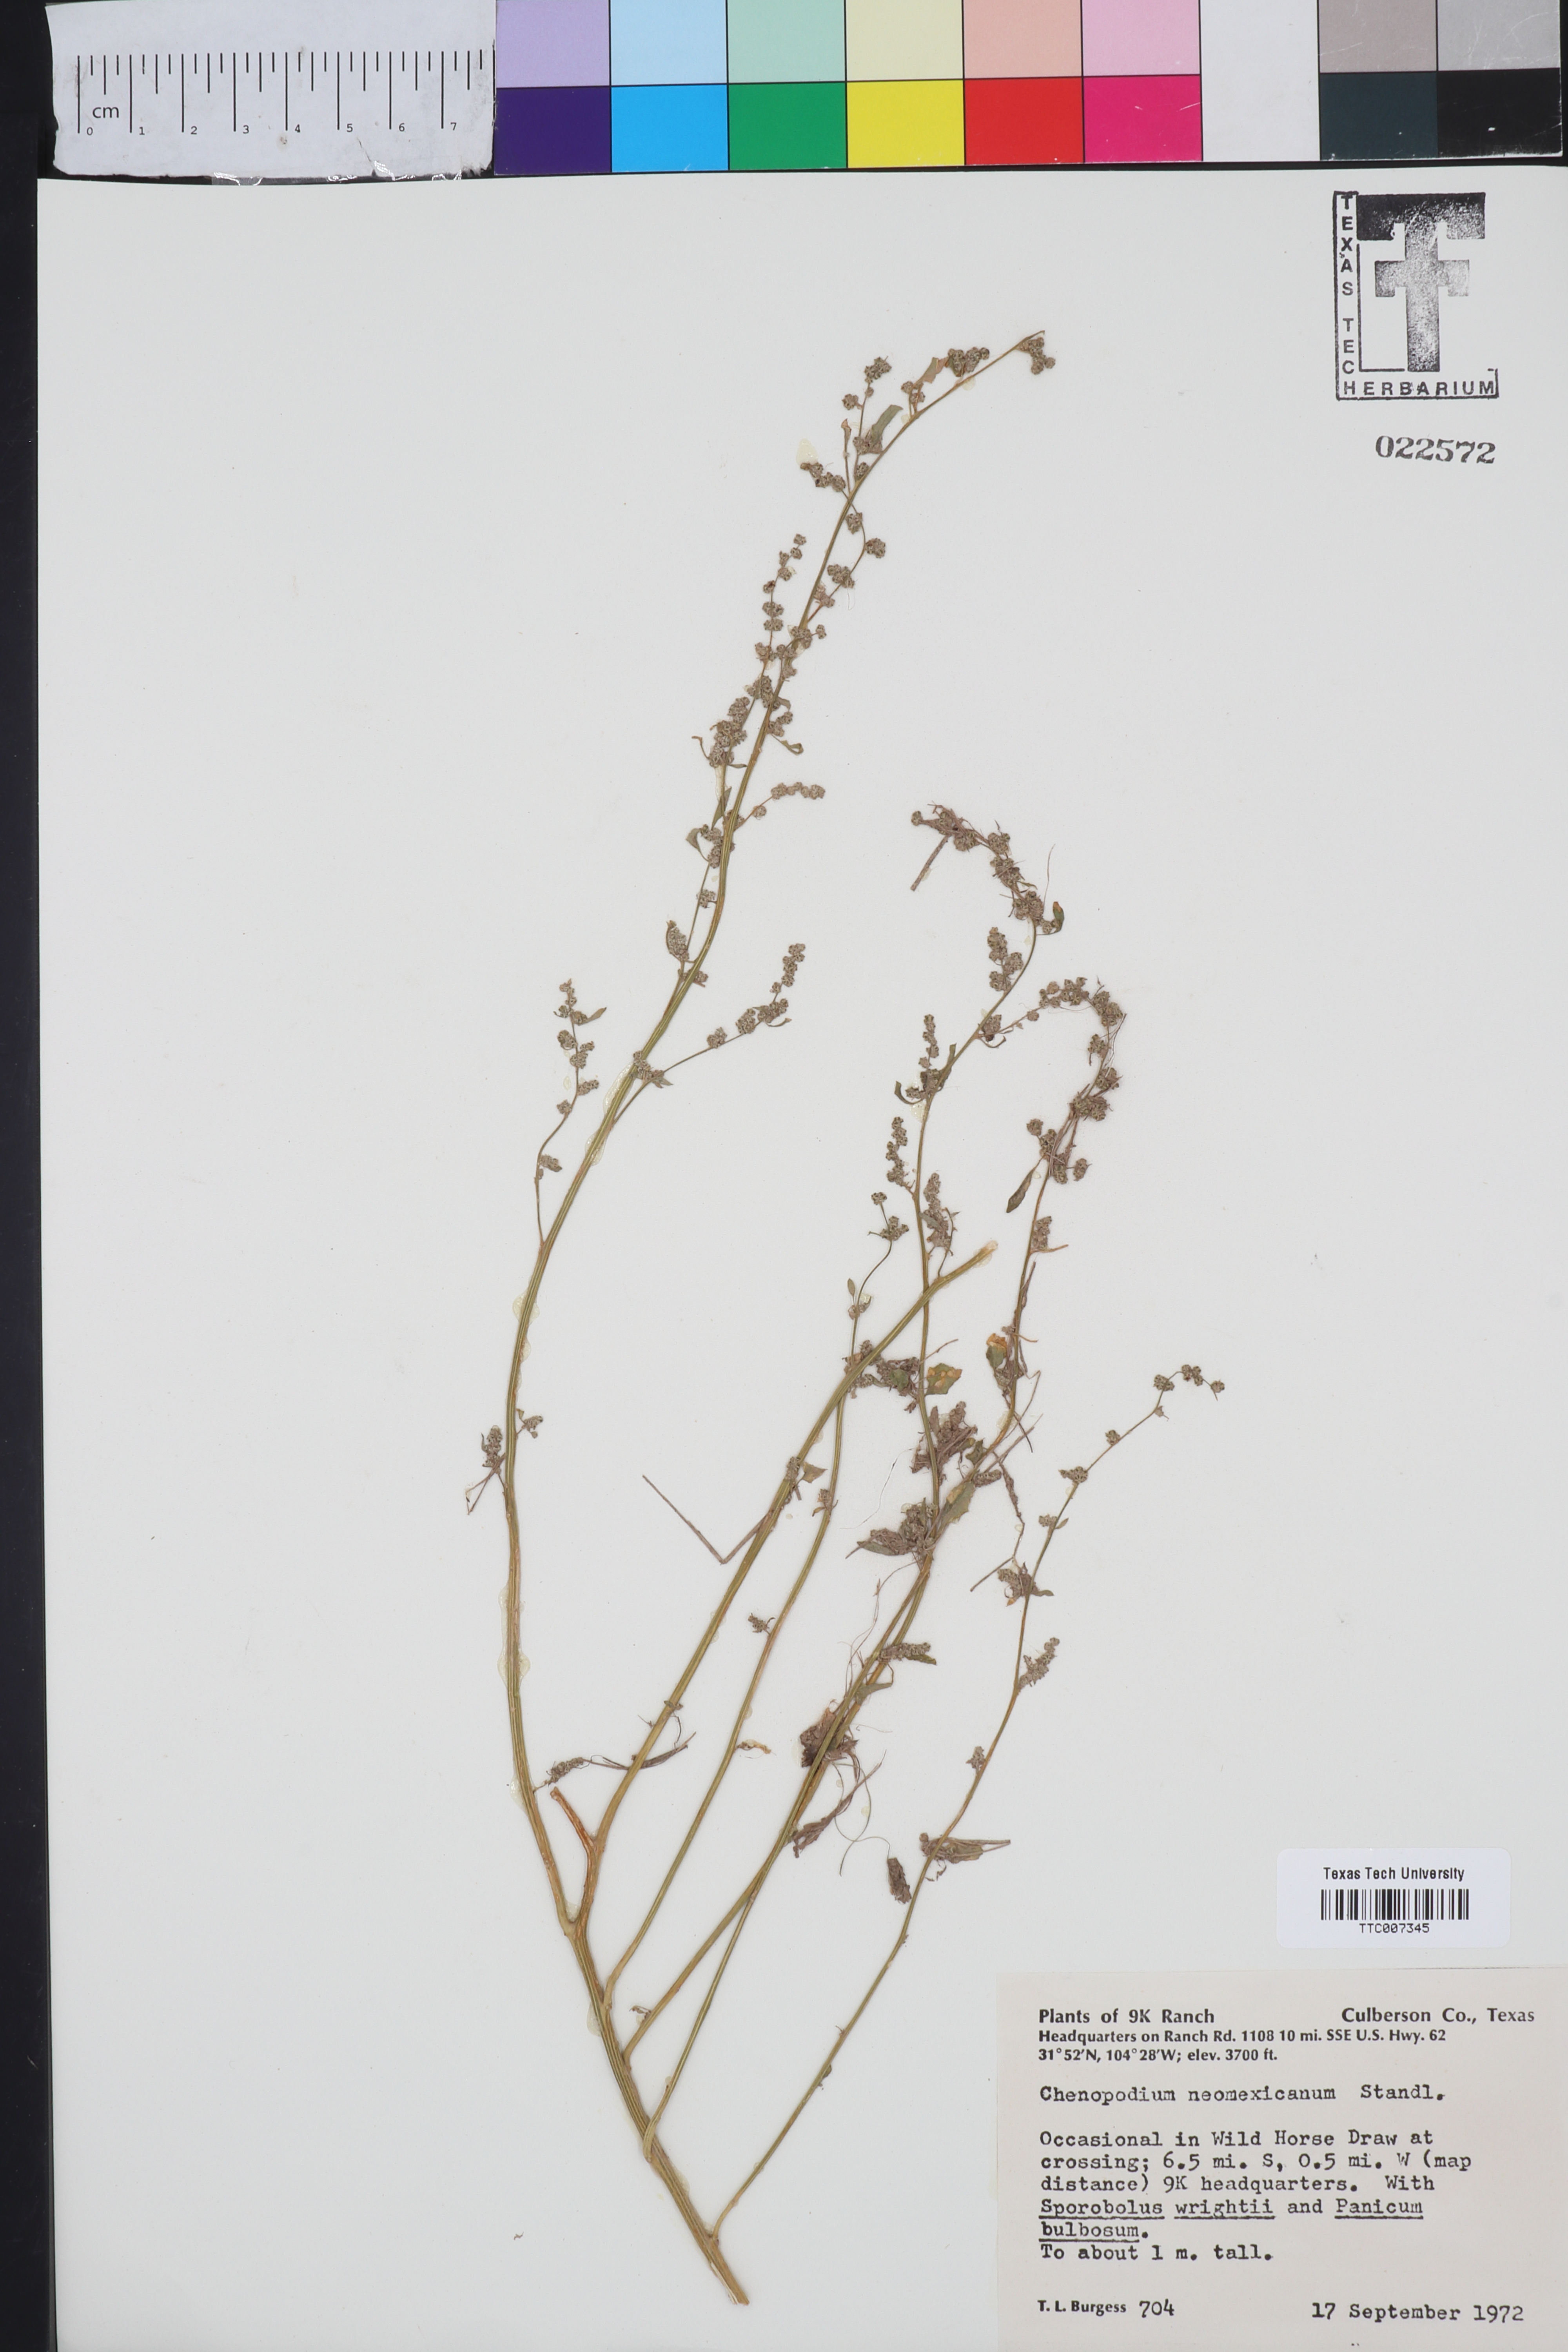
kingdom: Plantae
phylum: Tracheophyta
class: Magnoliopsida
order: Caryophyllales
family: Amaranthaceae
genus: Chenopodium
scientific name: Chenopodium neomexicanum
